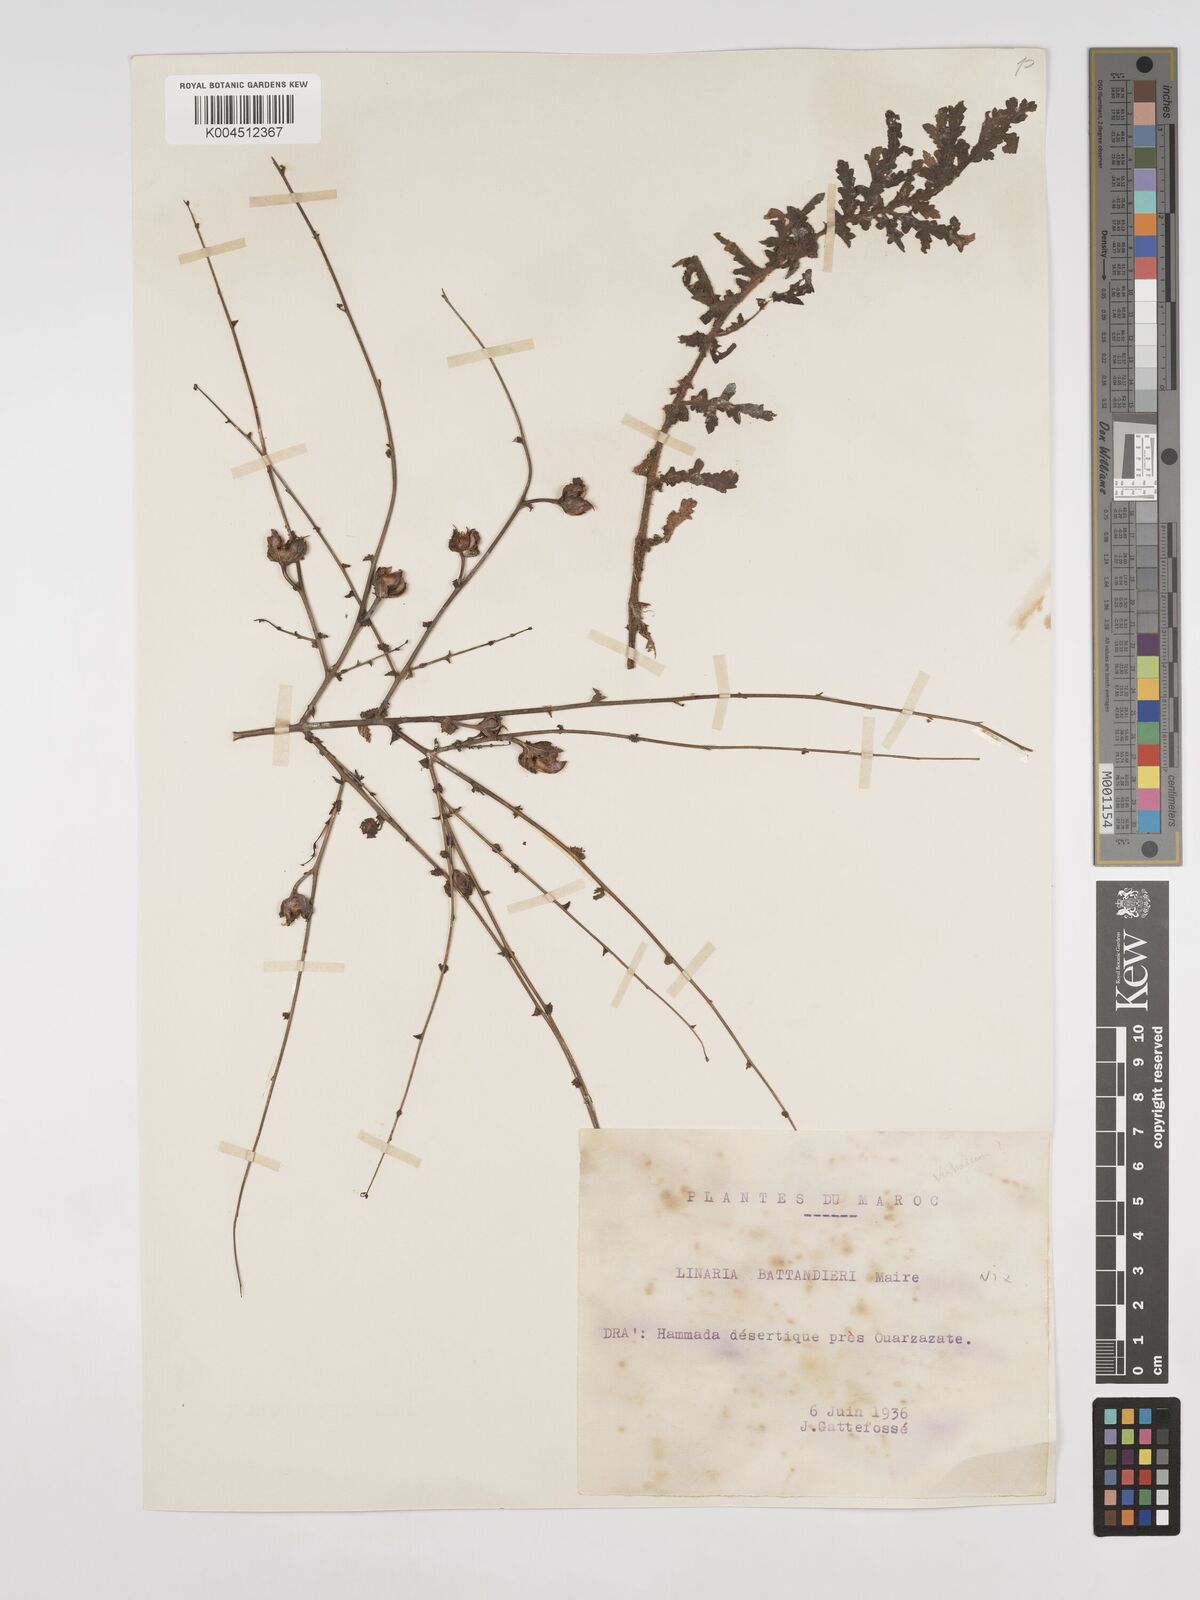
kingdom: Plantae
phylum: Tracheophyta
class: Magnoliopsida
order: Lamiales
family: Plantaginaceae
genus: Linaria
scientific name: Linaria
